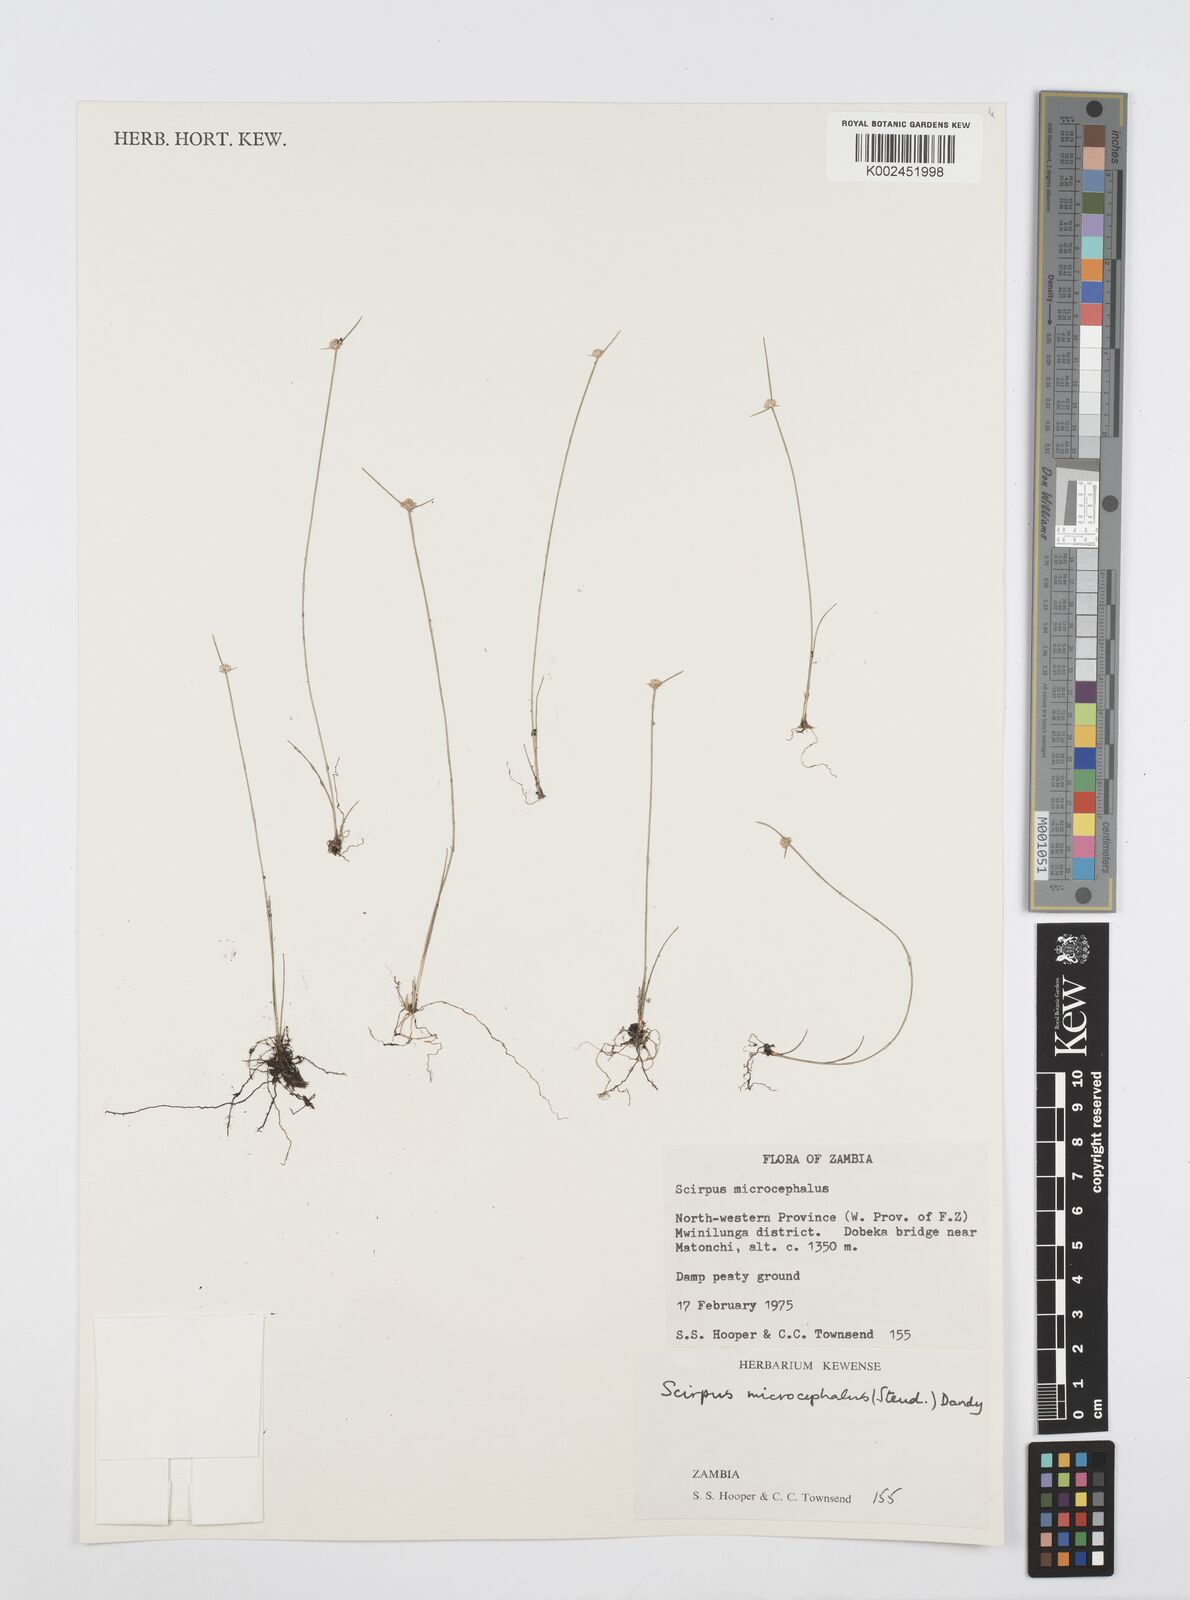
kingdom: Plantae
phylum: Tracheophyta
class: Liliopsida
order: Poales
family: Cyperaceae
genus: Cyperus
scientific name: Cyperus microcephalus
